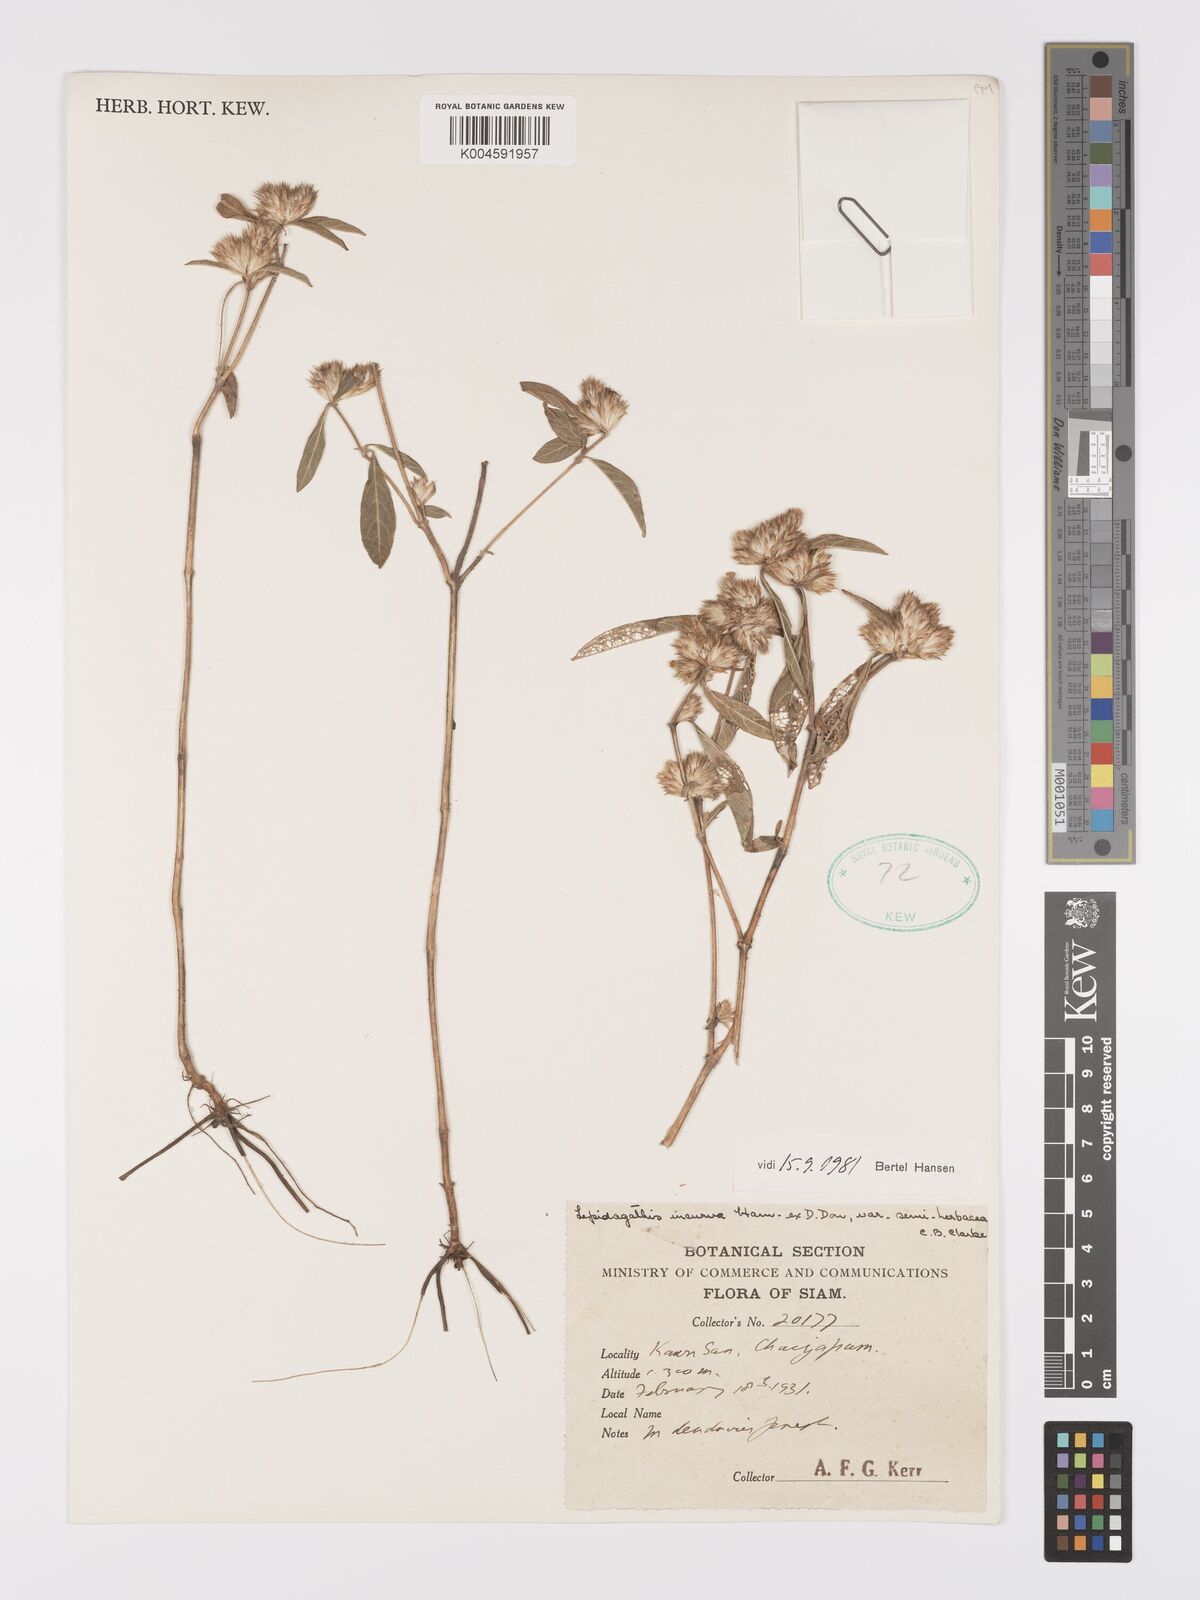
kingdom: Plantae
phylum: Tracheophyta
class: Magnoliopsida
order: Lamiales
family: Acanthaceae
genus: Lepidagathis
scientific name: Lepidagathis incurva
